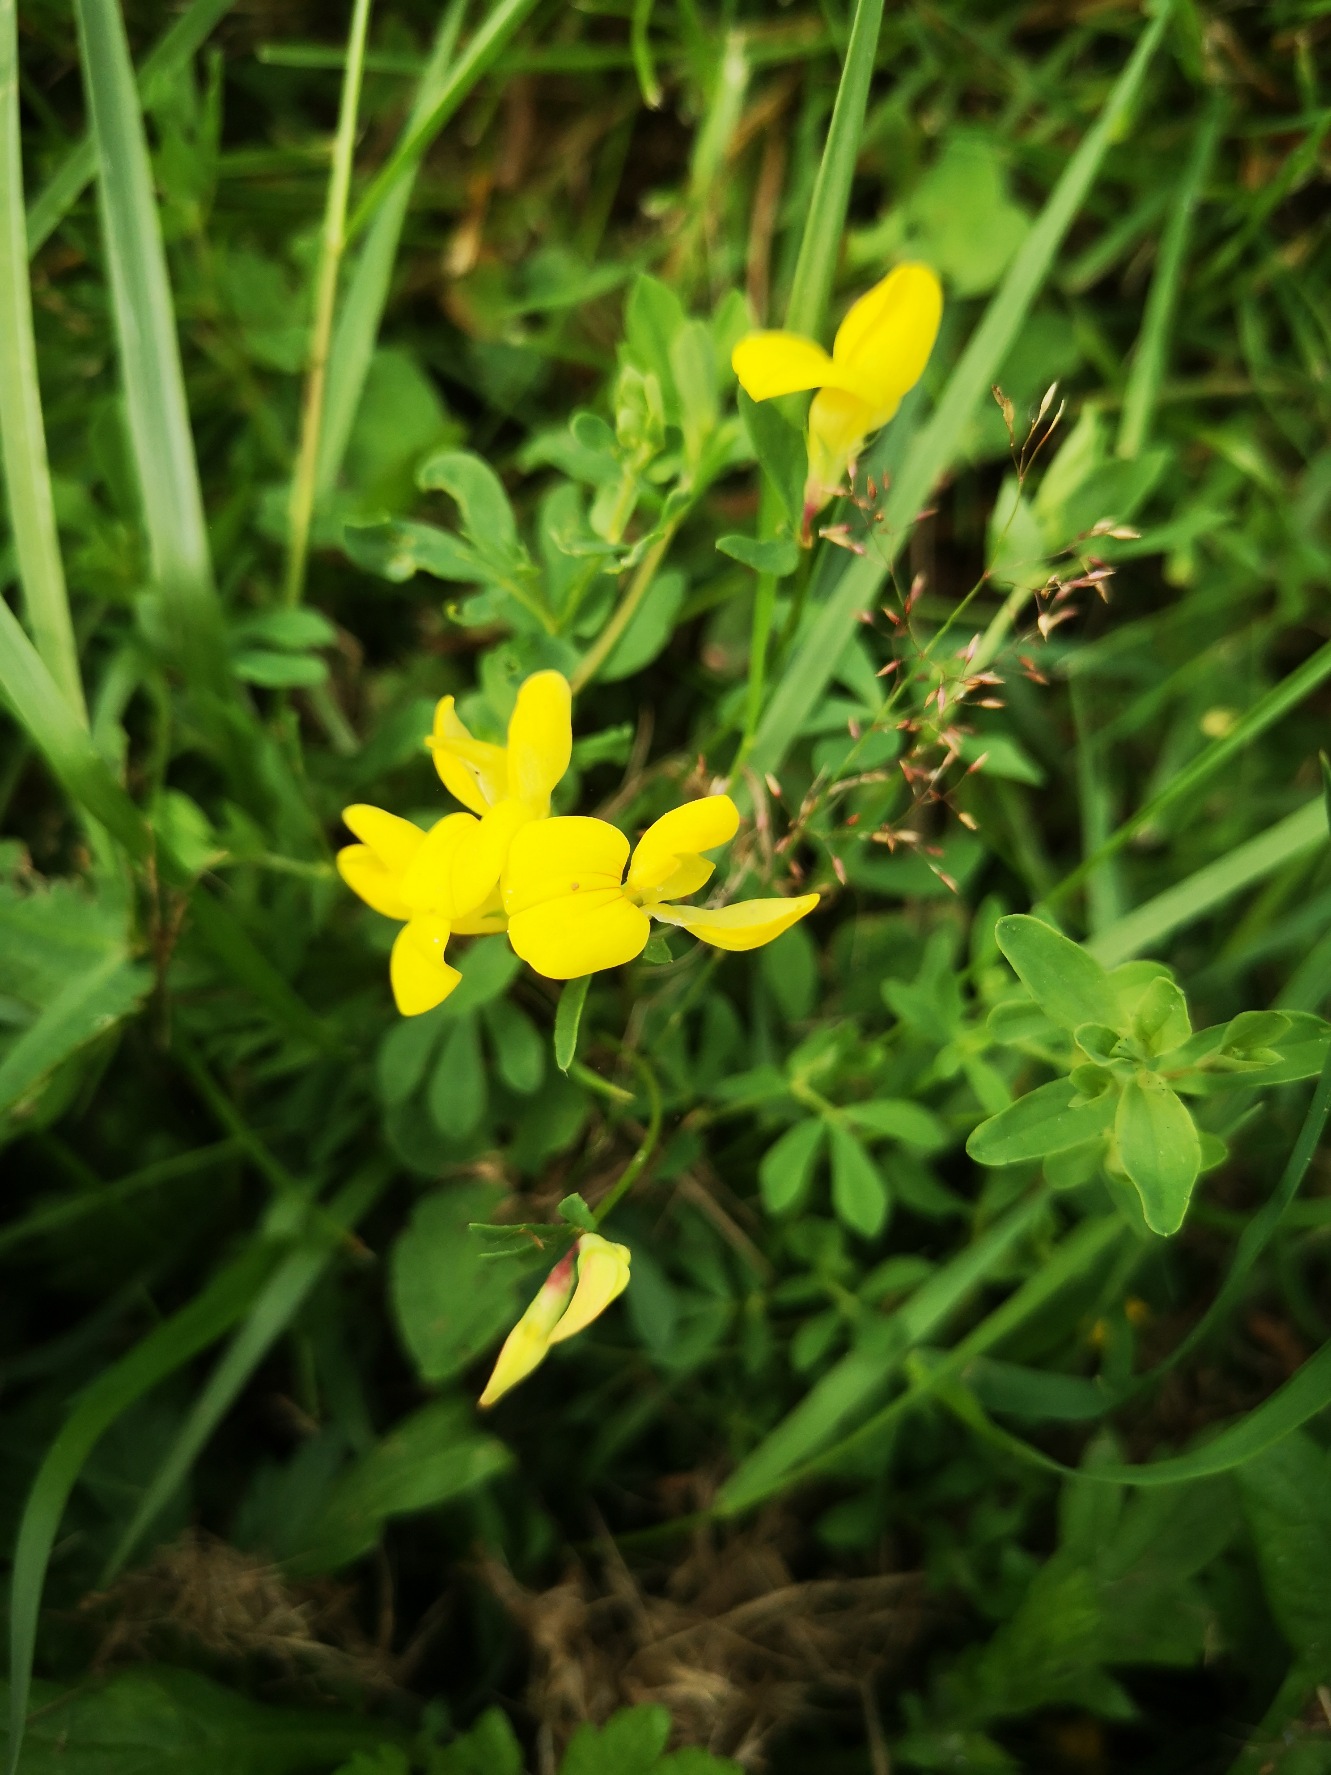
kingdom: Plantae
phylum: Tracheophyta
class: Magnoliopsida
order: Fabales
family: Fabaceae
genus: Lotus
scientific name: Lotus corniculatus
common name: Almindelig kællingetand
